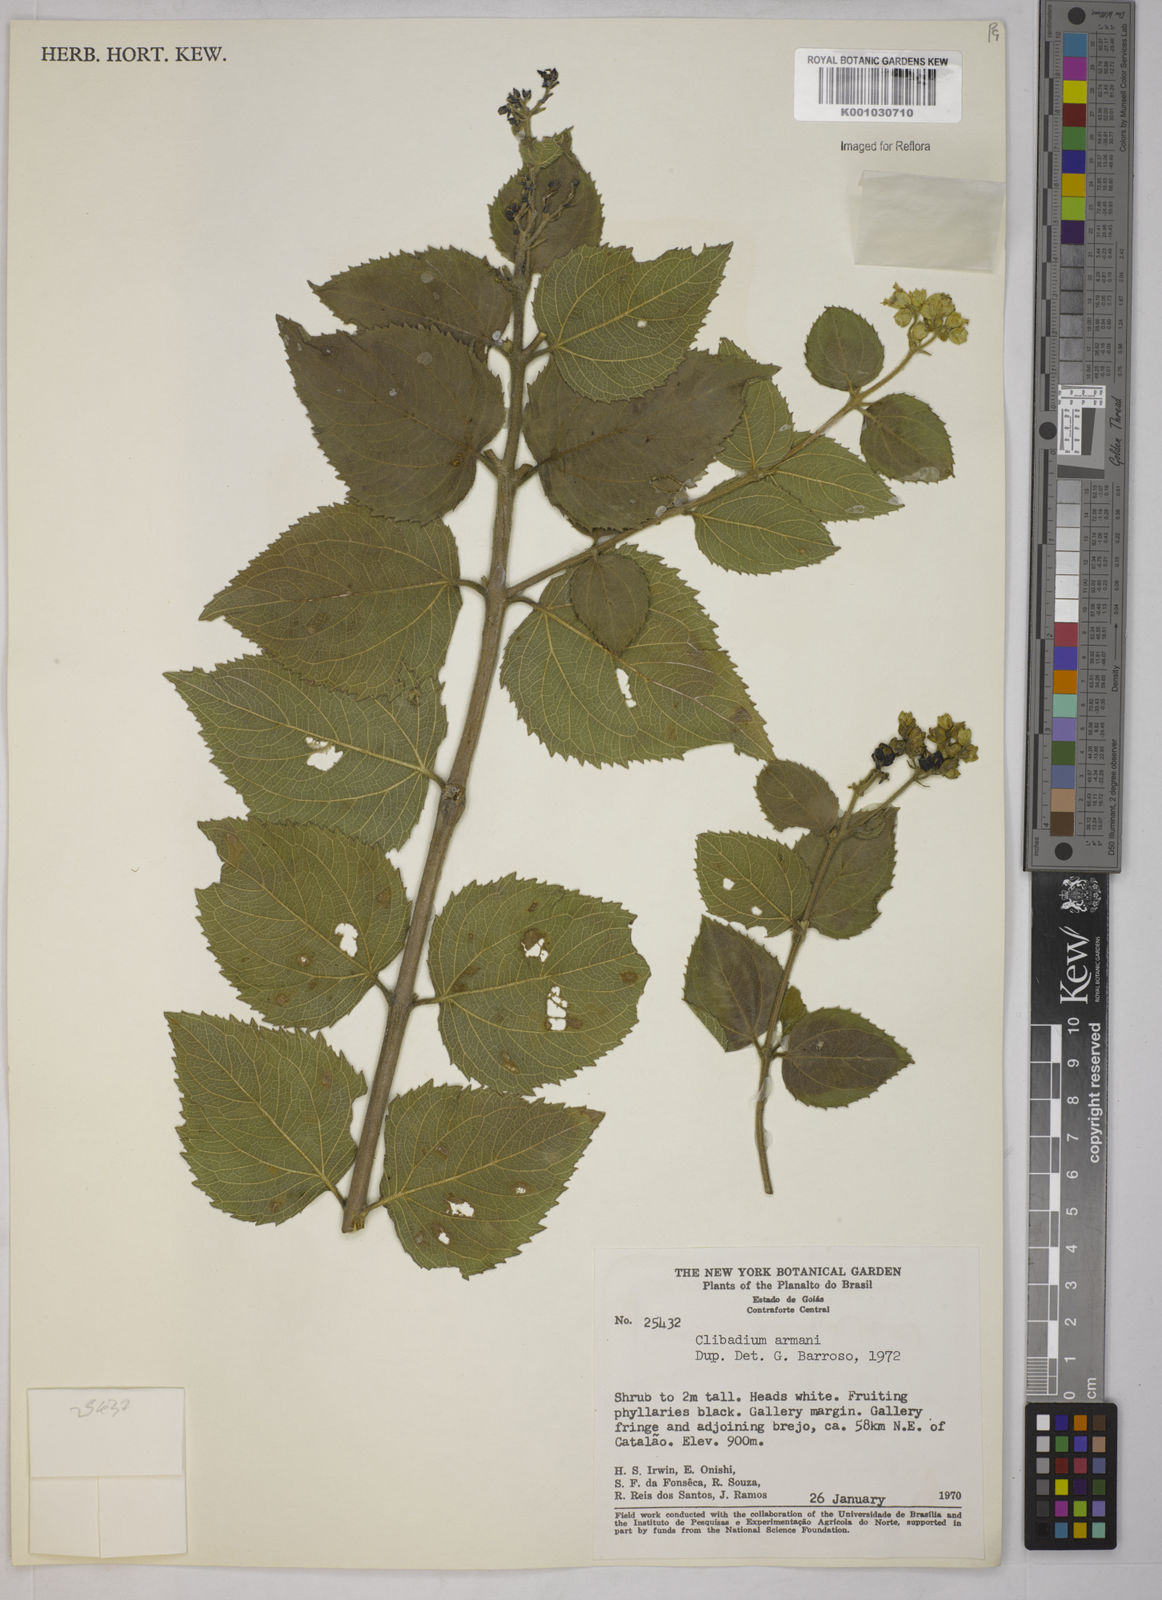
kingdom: Plantae
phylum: Tracheophyta
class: Magnoliopsida
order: Asterales
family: Asteraceae
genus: Clibadium
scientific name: Clibadium armanii
